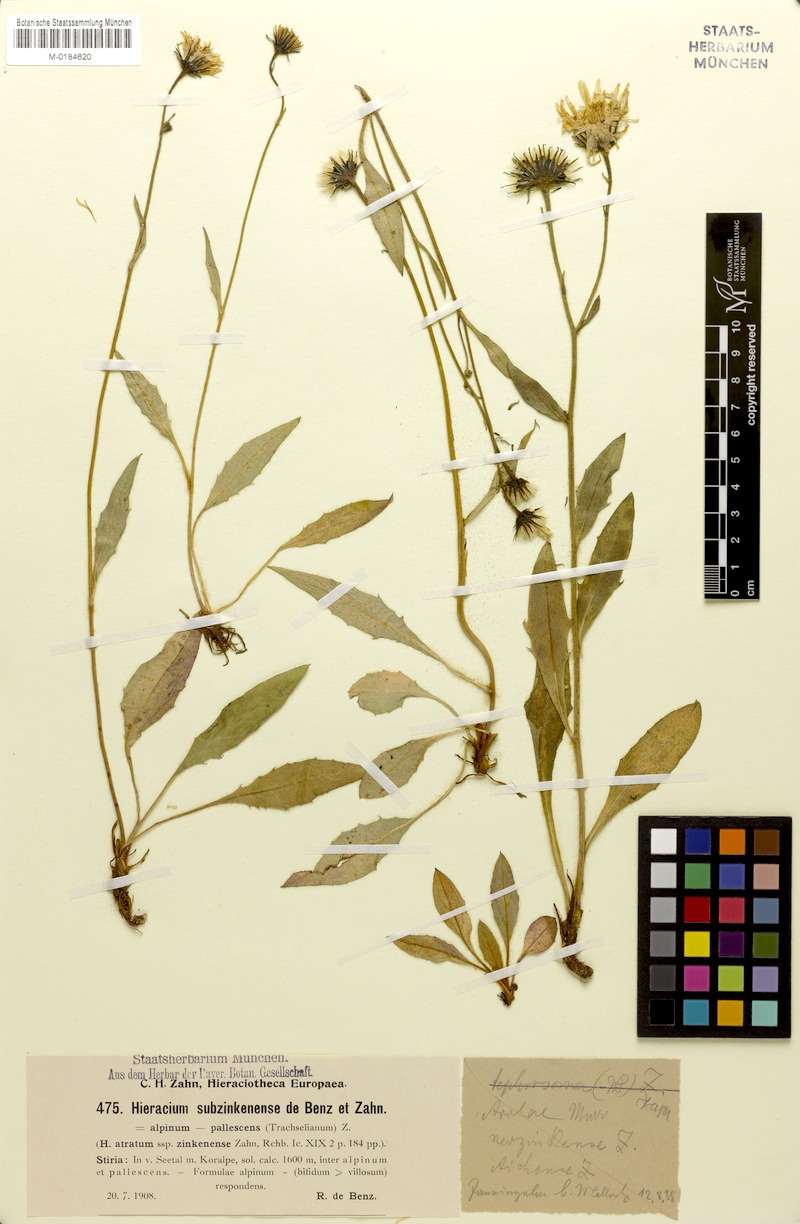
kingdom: Plantae
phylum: Tracheophyta
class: Magnoliopsida
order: Asterales
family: Asteraceae
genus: Hieracium
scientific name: Hieracium arolae
